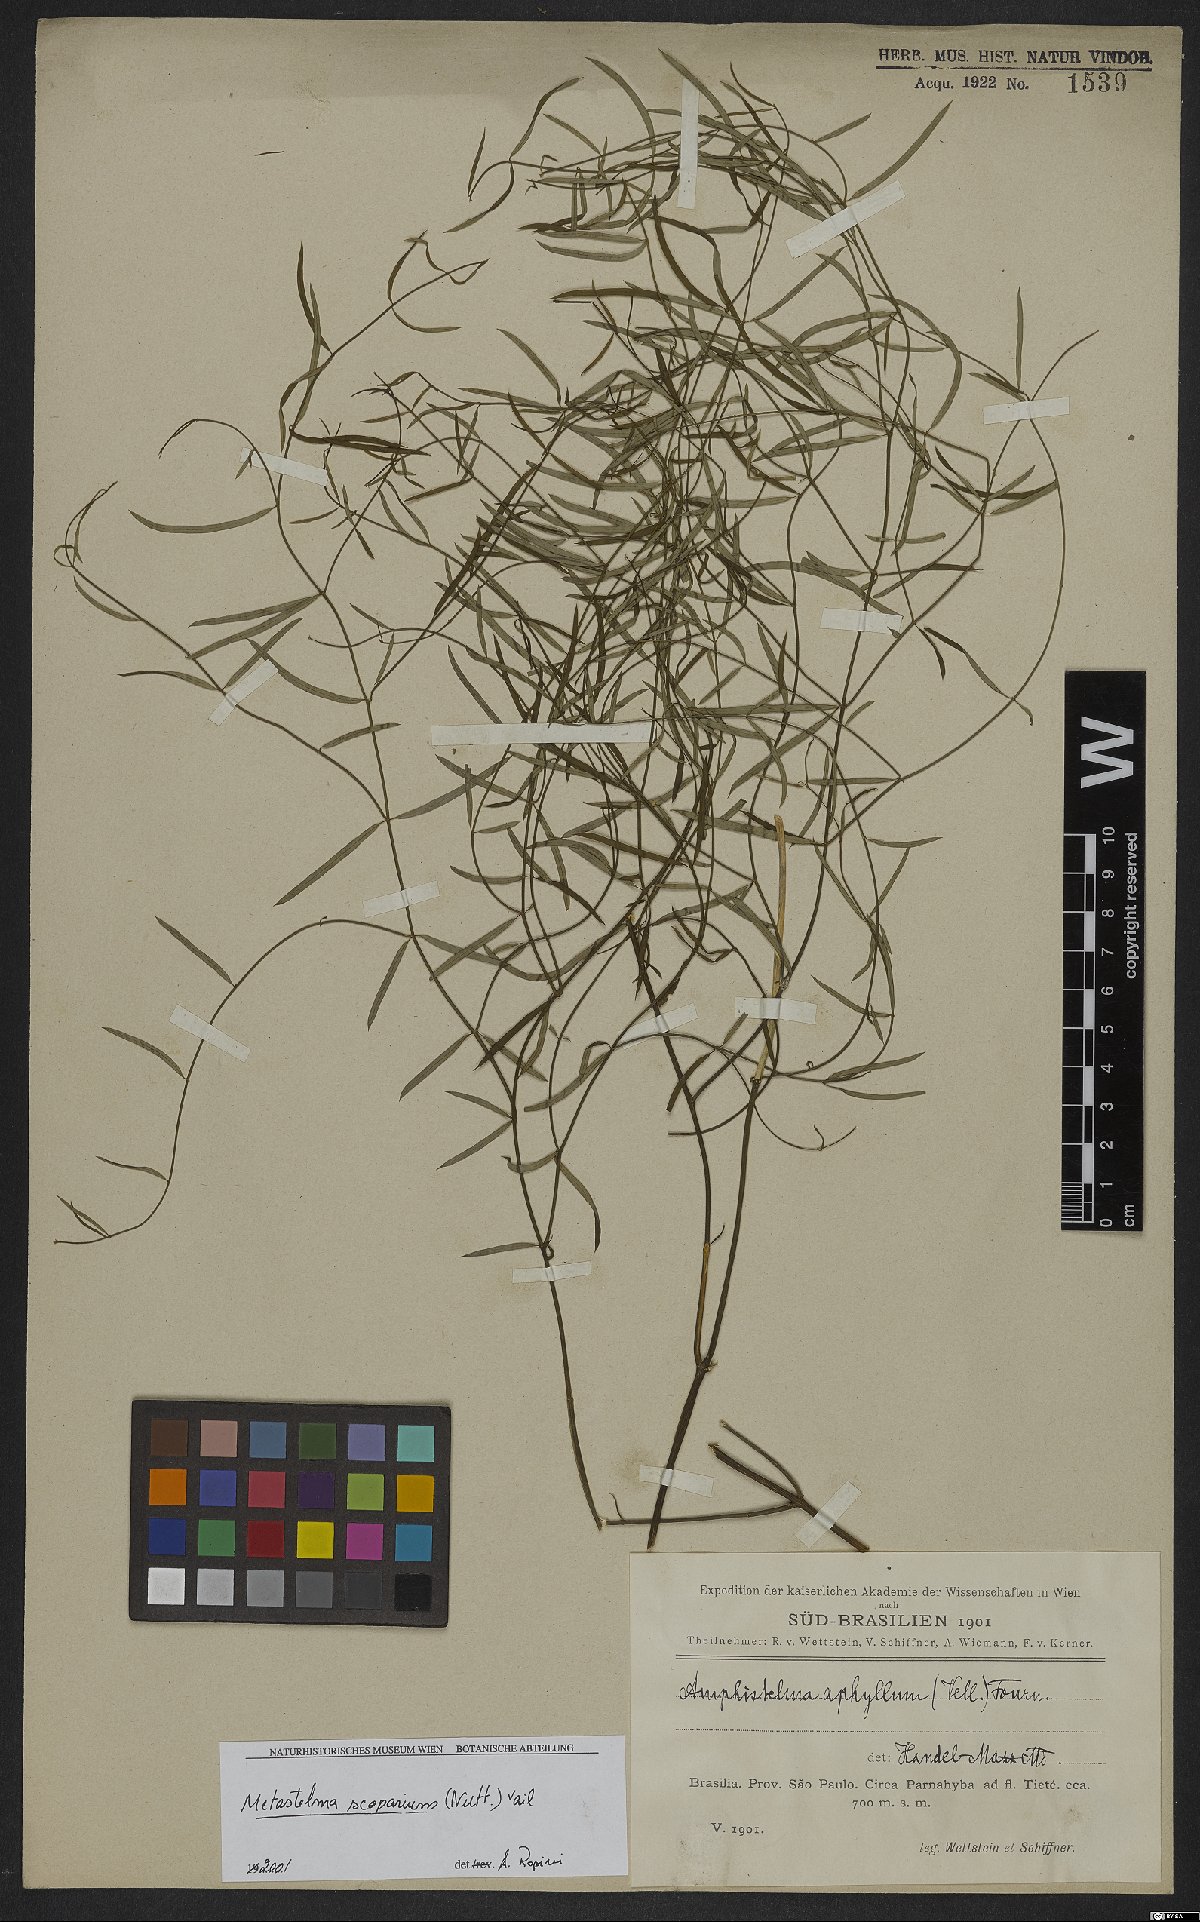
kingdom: Plantae
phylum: Tracheophyta
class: Magnoliopsida
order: Gentianales
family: Apocynaceae
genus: Orthosia
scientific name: Orthosia scoparia
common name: Leafless swallow-wort
